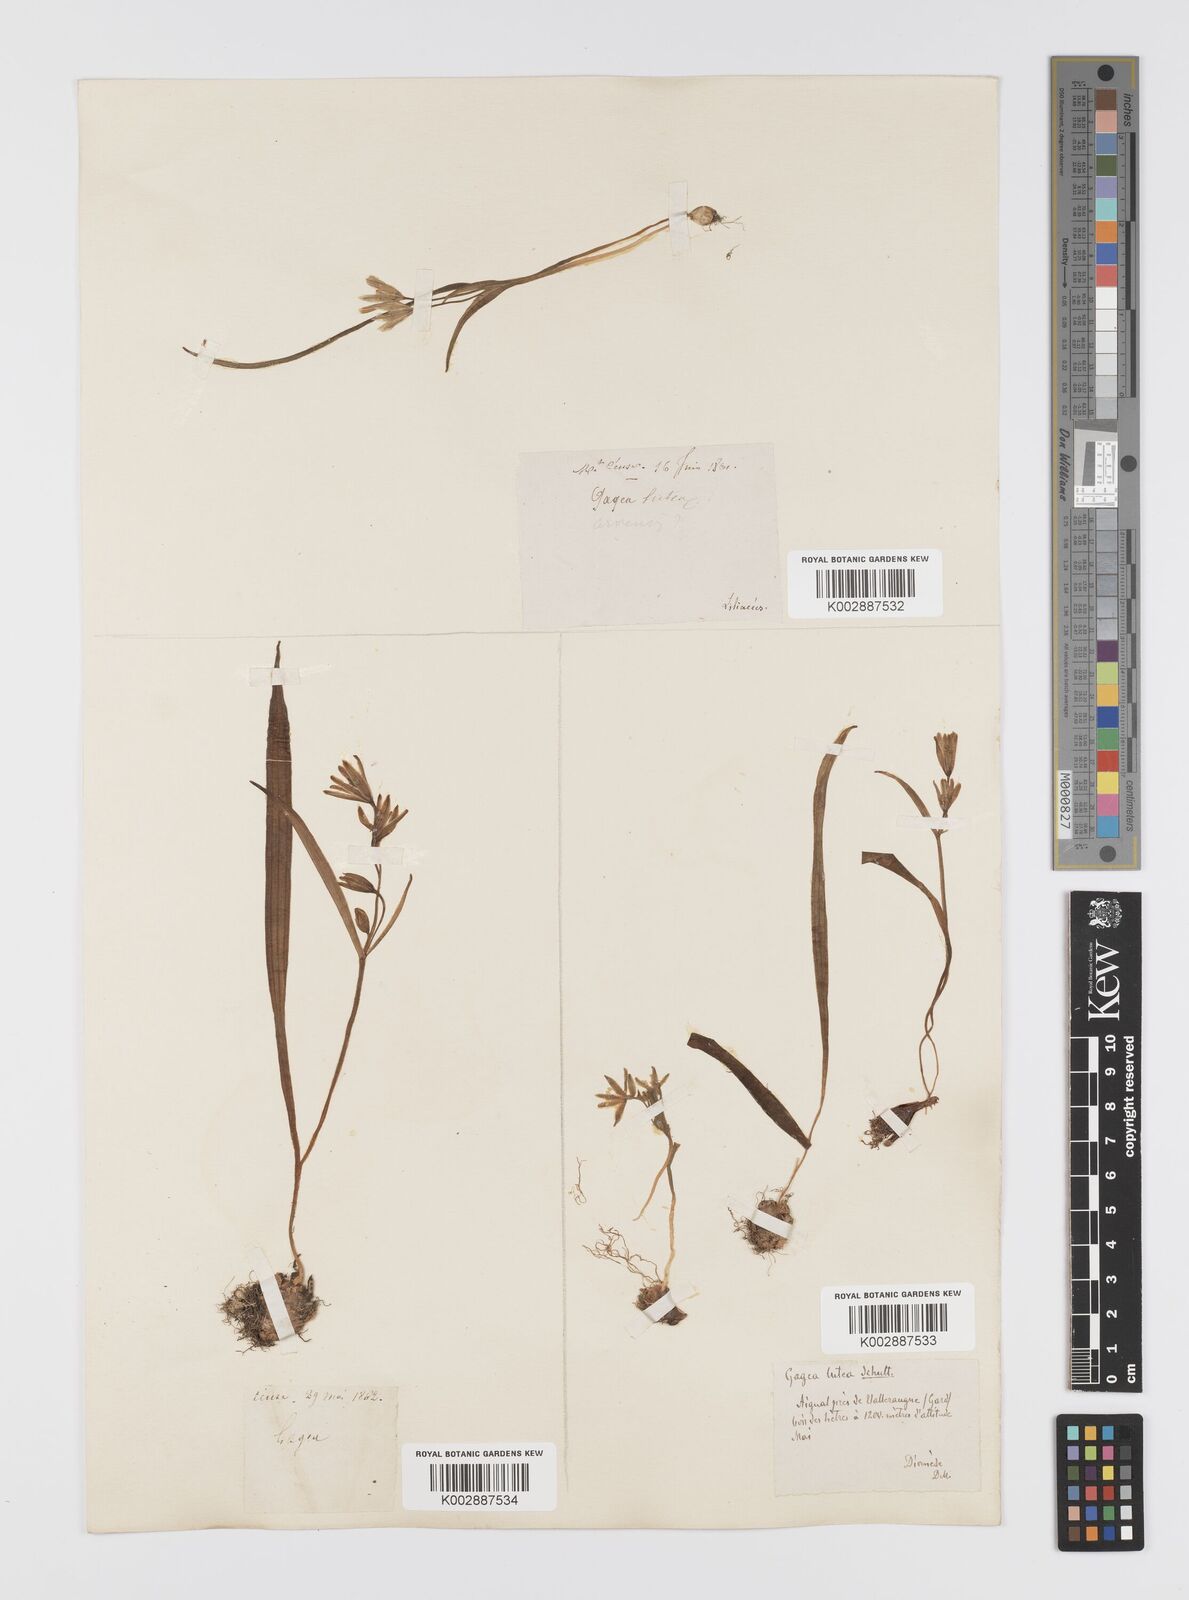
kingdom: Plantae
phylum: Tracheophyta
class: Liliopsida
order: Liliales
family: Liliaceae
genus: Gagea
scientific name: Gagea lutea
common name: Yellow star-of-bethlehem
